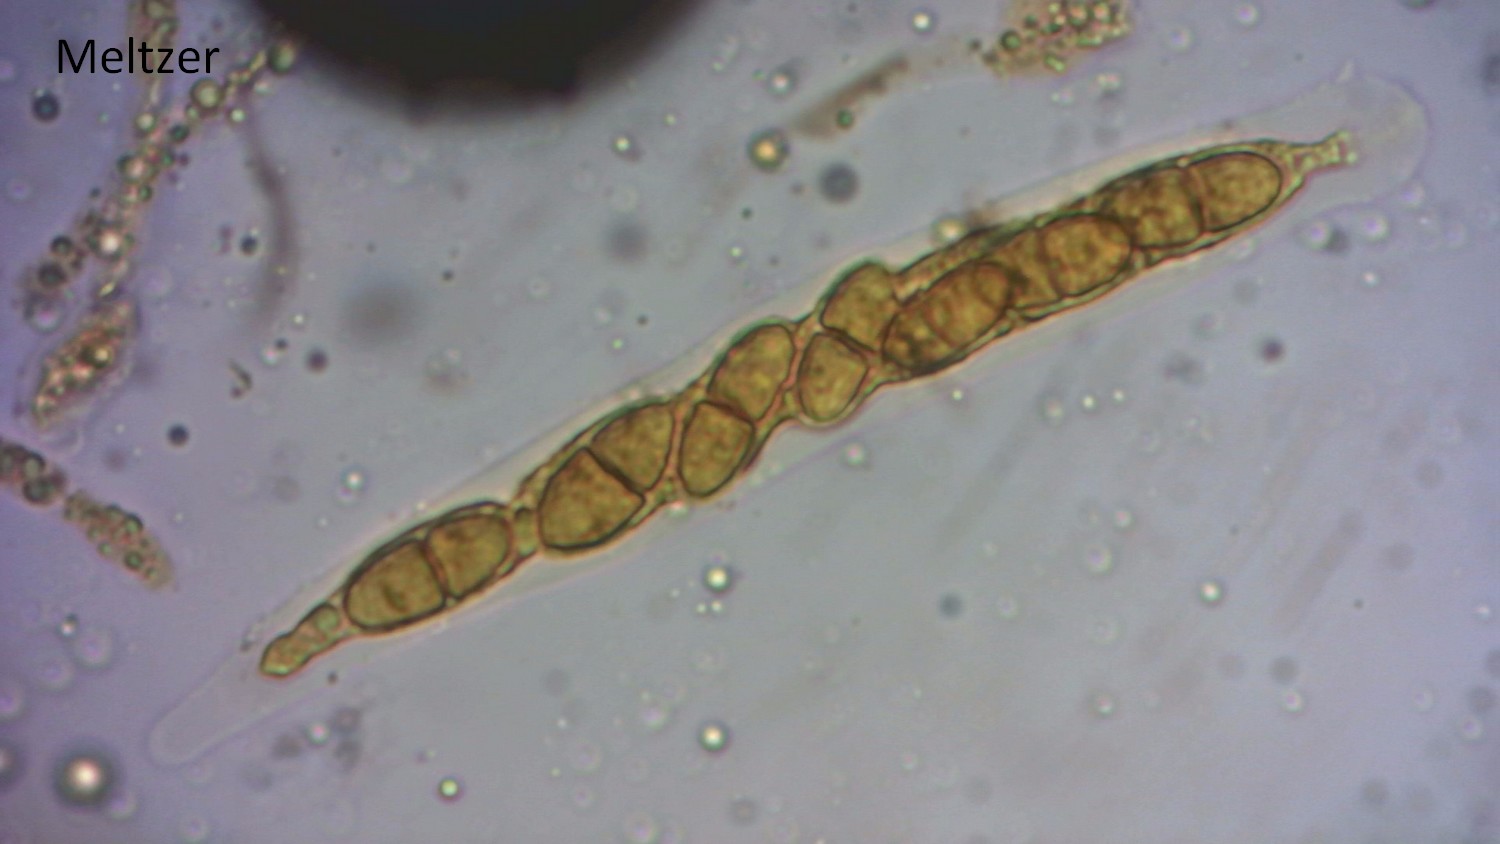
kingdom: Fungi
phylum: Ascomycota
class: Sordariomycetes
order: Diaporthales
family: Lamproconiaceae
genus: Hercospora
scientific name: Hercospora tiliae
